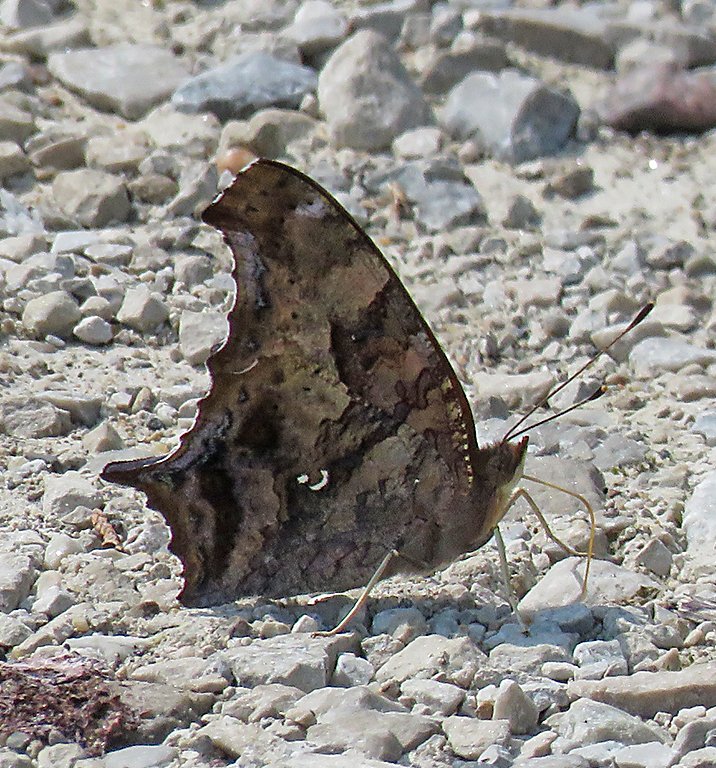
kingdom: Animalia
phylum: Arthropoda
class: Insecta
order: Lepidoptera
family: Nymphalidae
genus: Polygonia
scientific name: Polygonia interrogationis
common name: Question Mark
